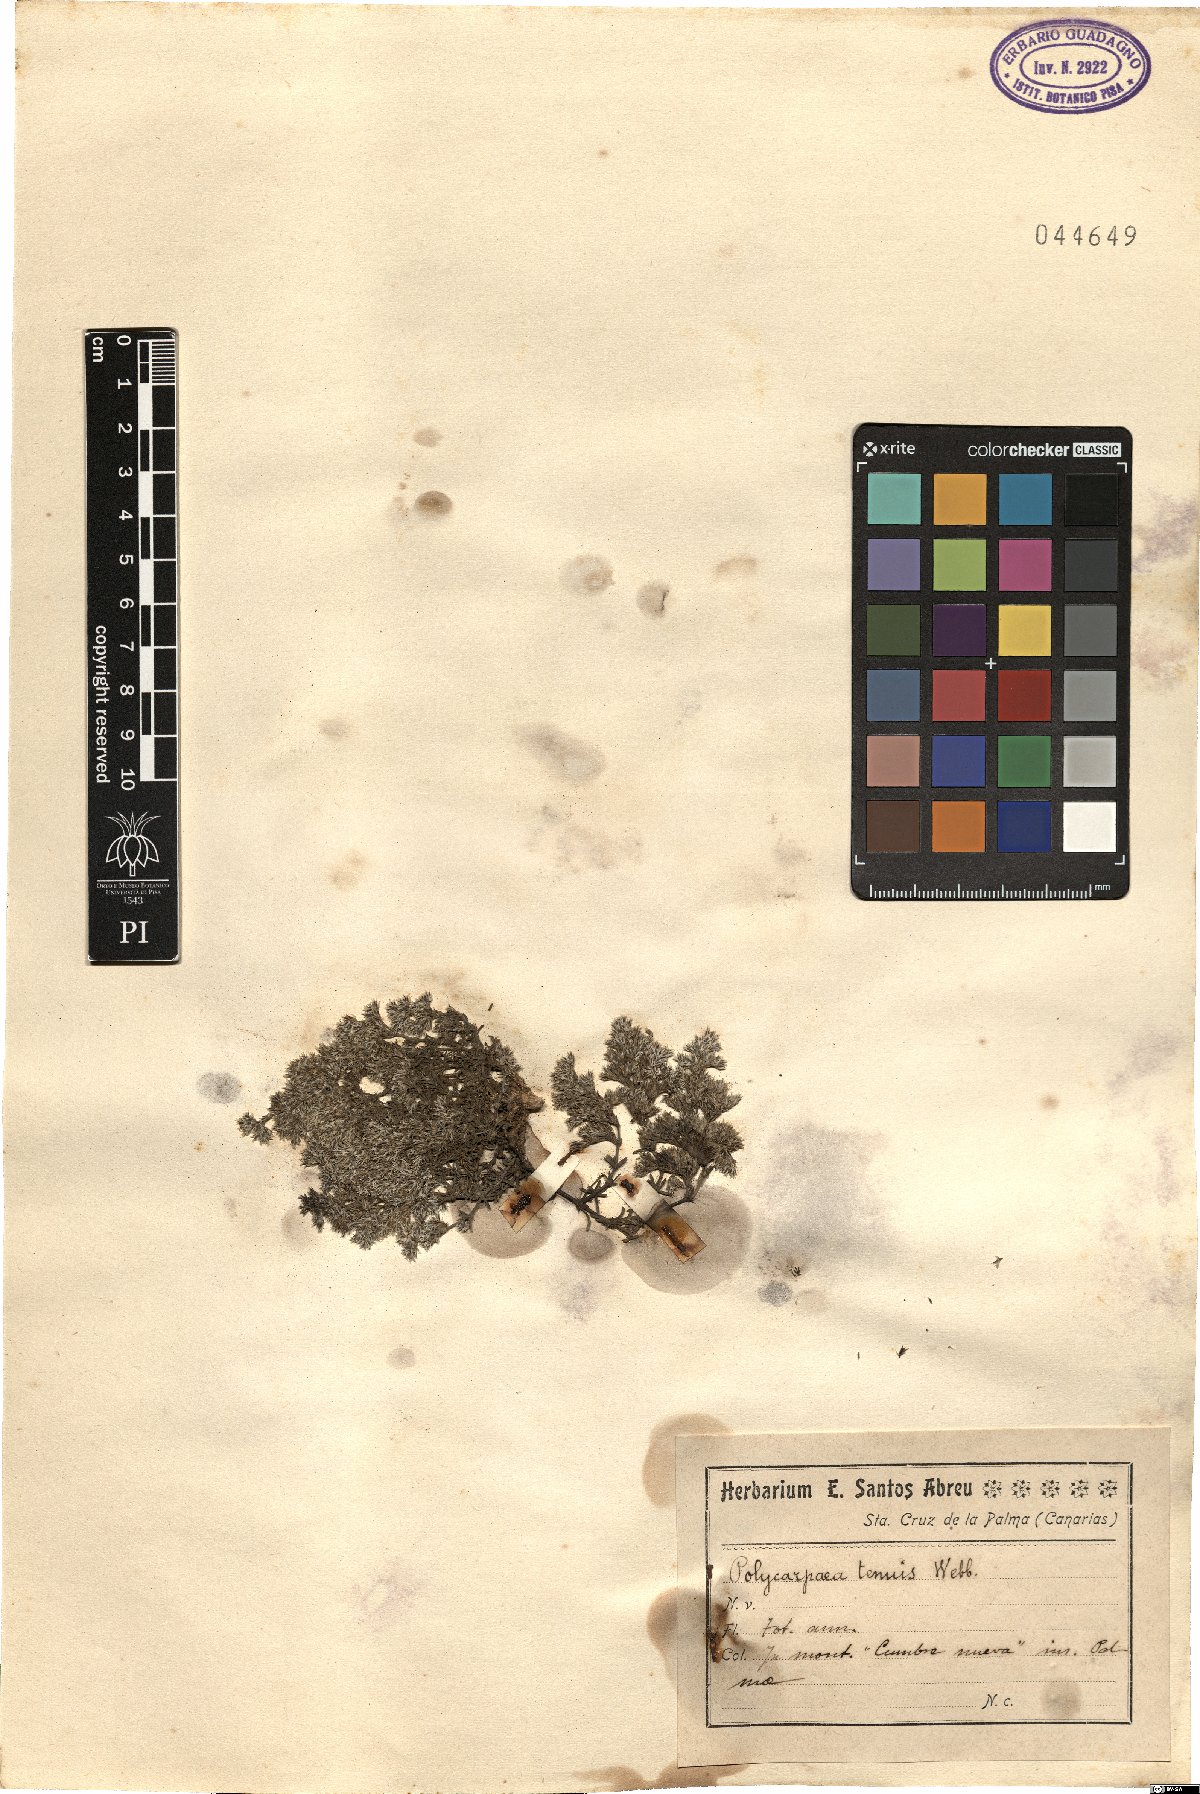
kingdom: Plantae
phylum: Tracheophyta
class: Magnoliopsida
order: Caryophyllales
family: Caryophyllaceae
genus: Polycarpaea
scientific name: Polycarpaea tenuis
